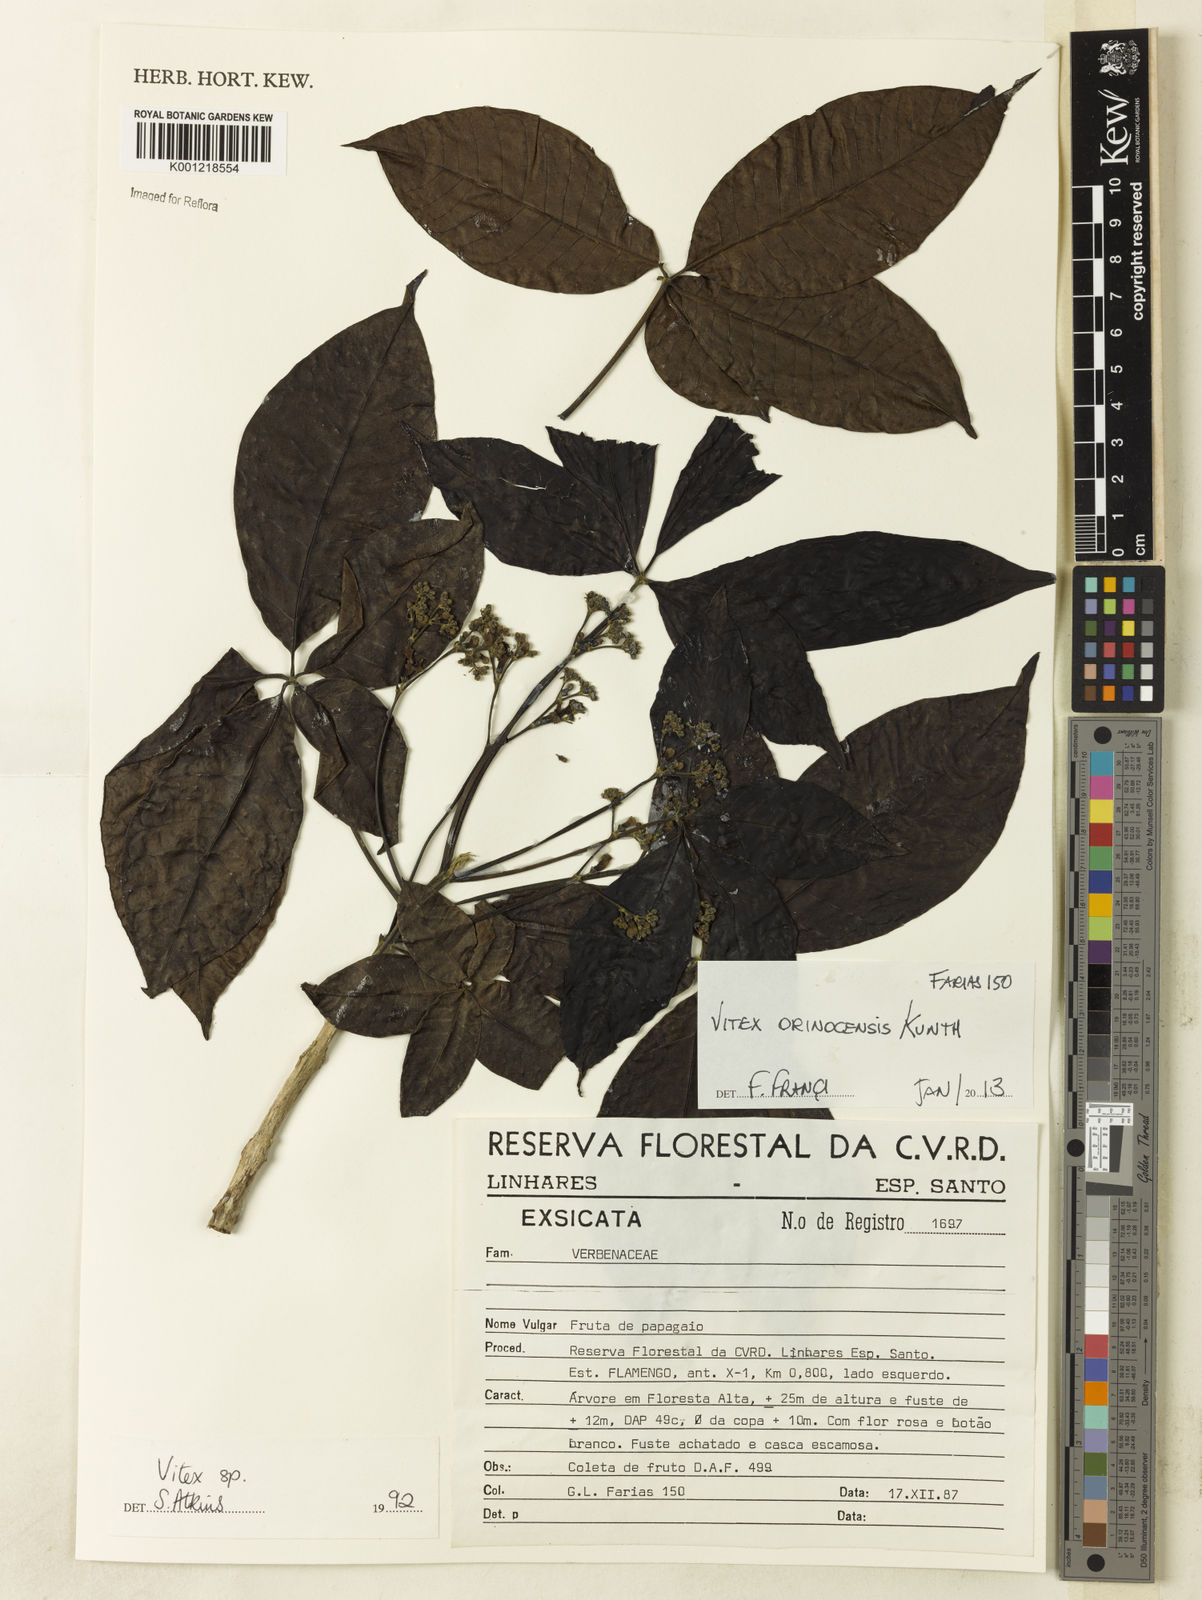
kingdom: Plantae
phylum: Tracheophyta
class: Magnoliopsida
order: Lamiales
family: Lamiaceae
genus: Vitex
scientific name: Vitex orinocensis
